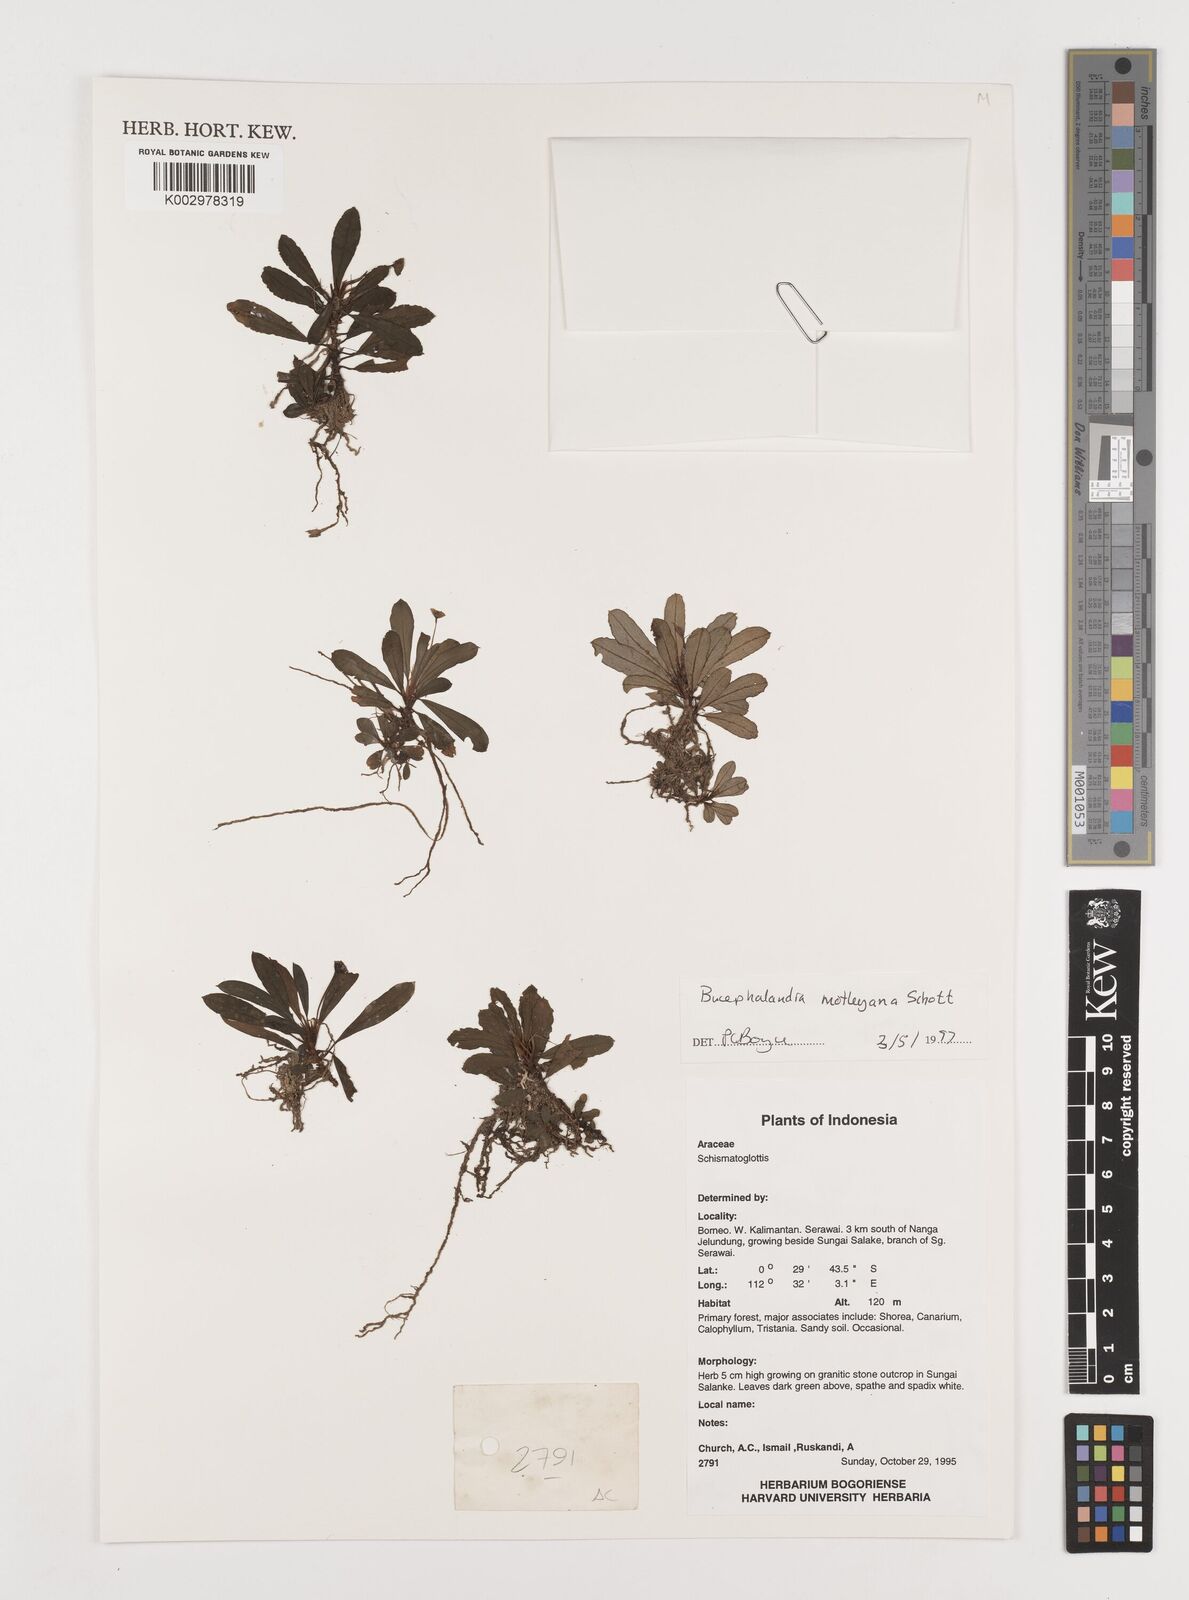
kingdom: Plantae
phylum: Tracheophyta
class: Liliopsida
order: Alismatales
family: Araceae
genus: Bucephalandra
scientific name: Bucephalandra motleyana
